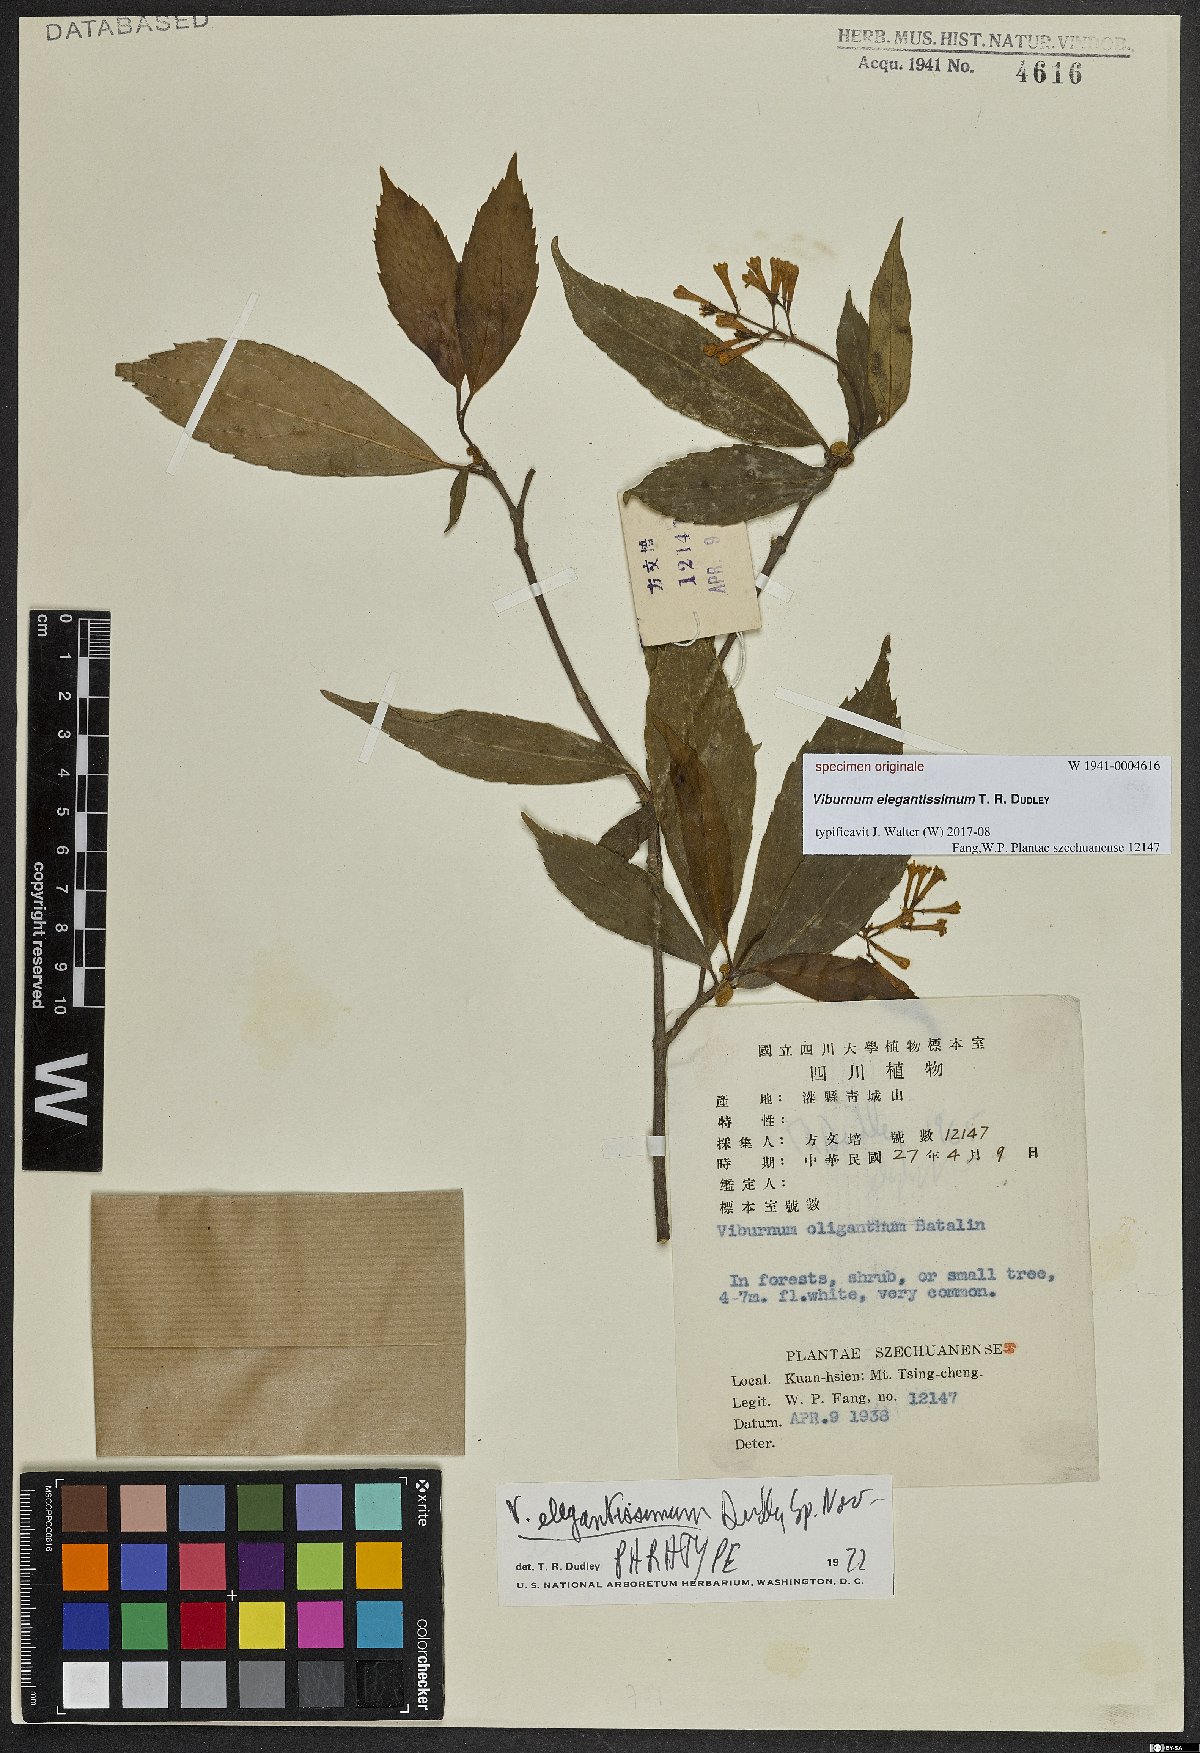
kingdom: Plantae
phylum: Tracheophyta
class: Magnoliopsida
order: Dipsacales
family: Viburnaceae
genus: Viburnum
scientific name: Viburnum
